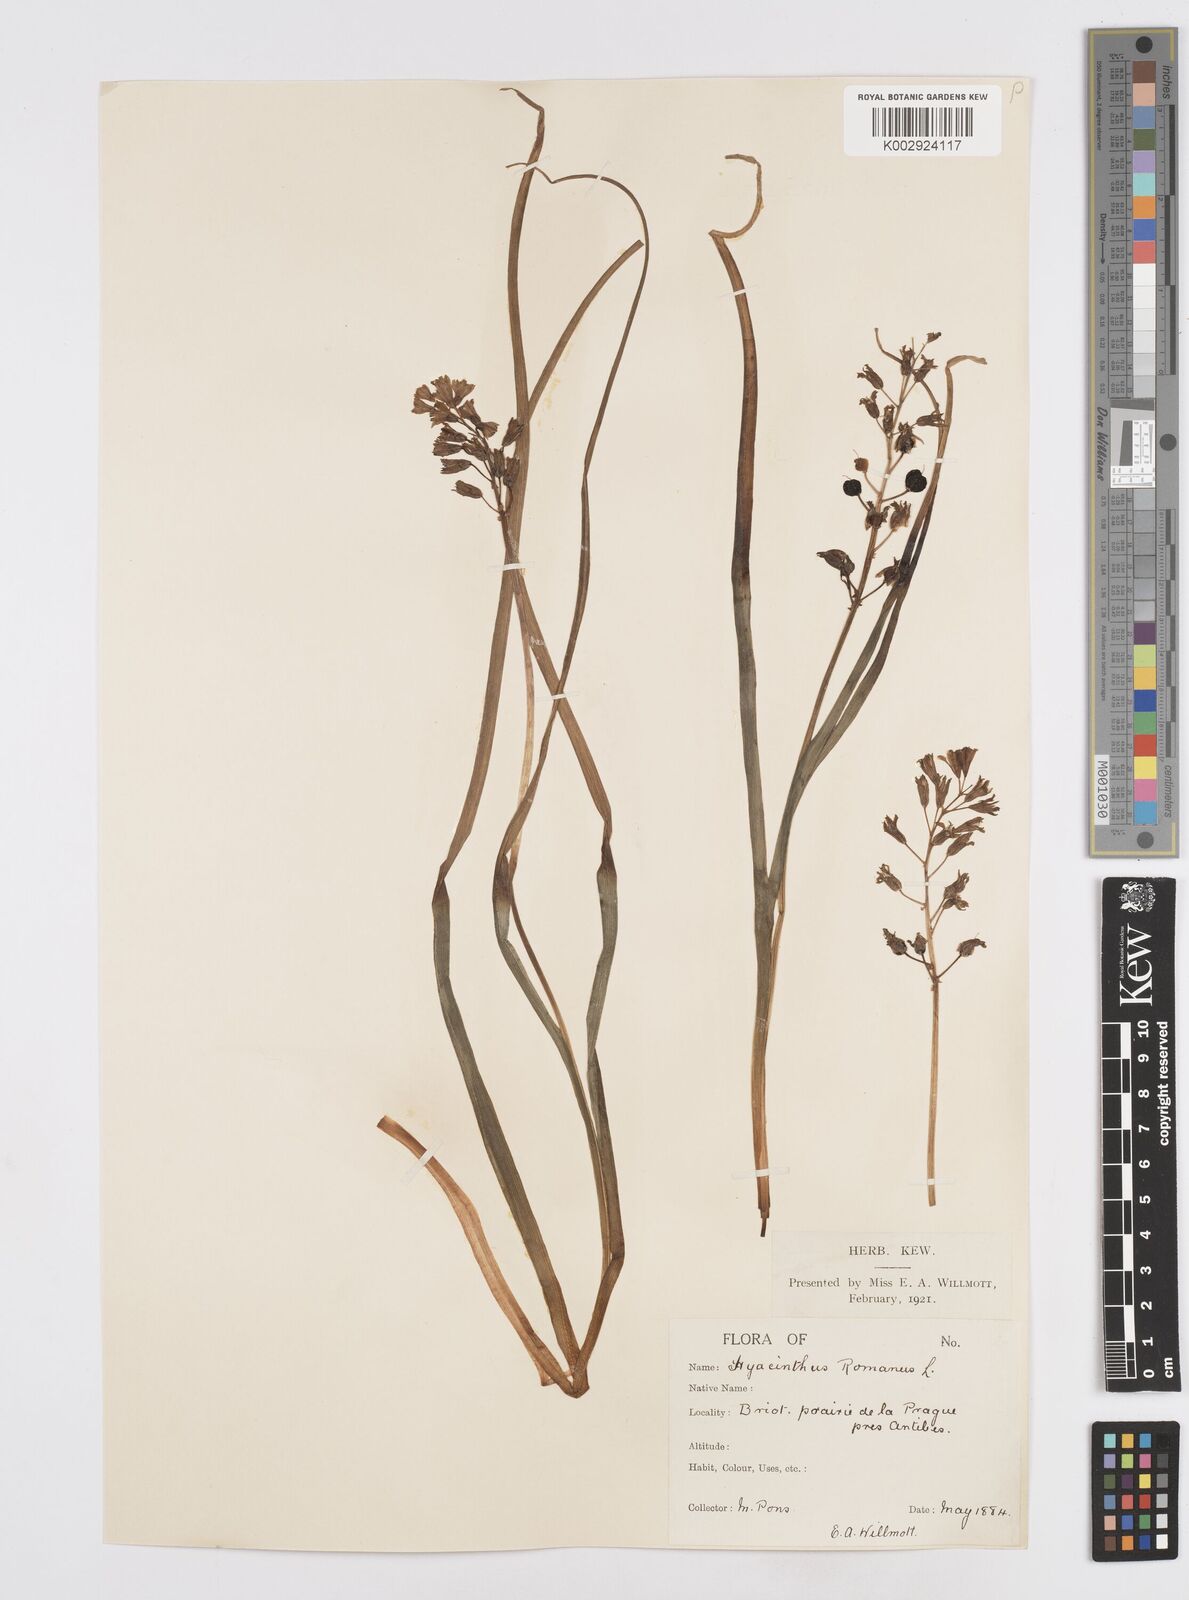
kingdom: Plantae
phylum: Tracheophyta
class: Liliopsida
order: Asparagales
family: Asparagaceae
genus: Bellevalia
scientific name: Bellevalia
